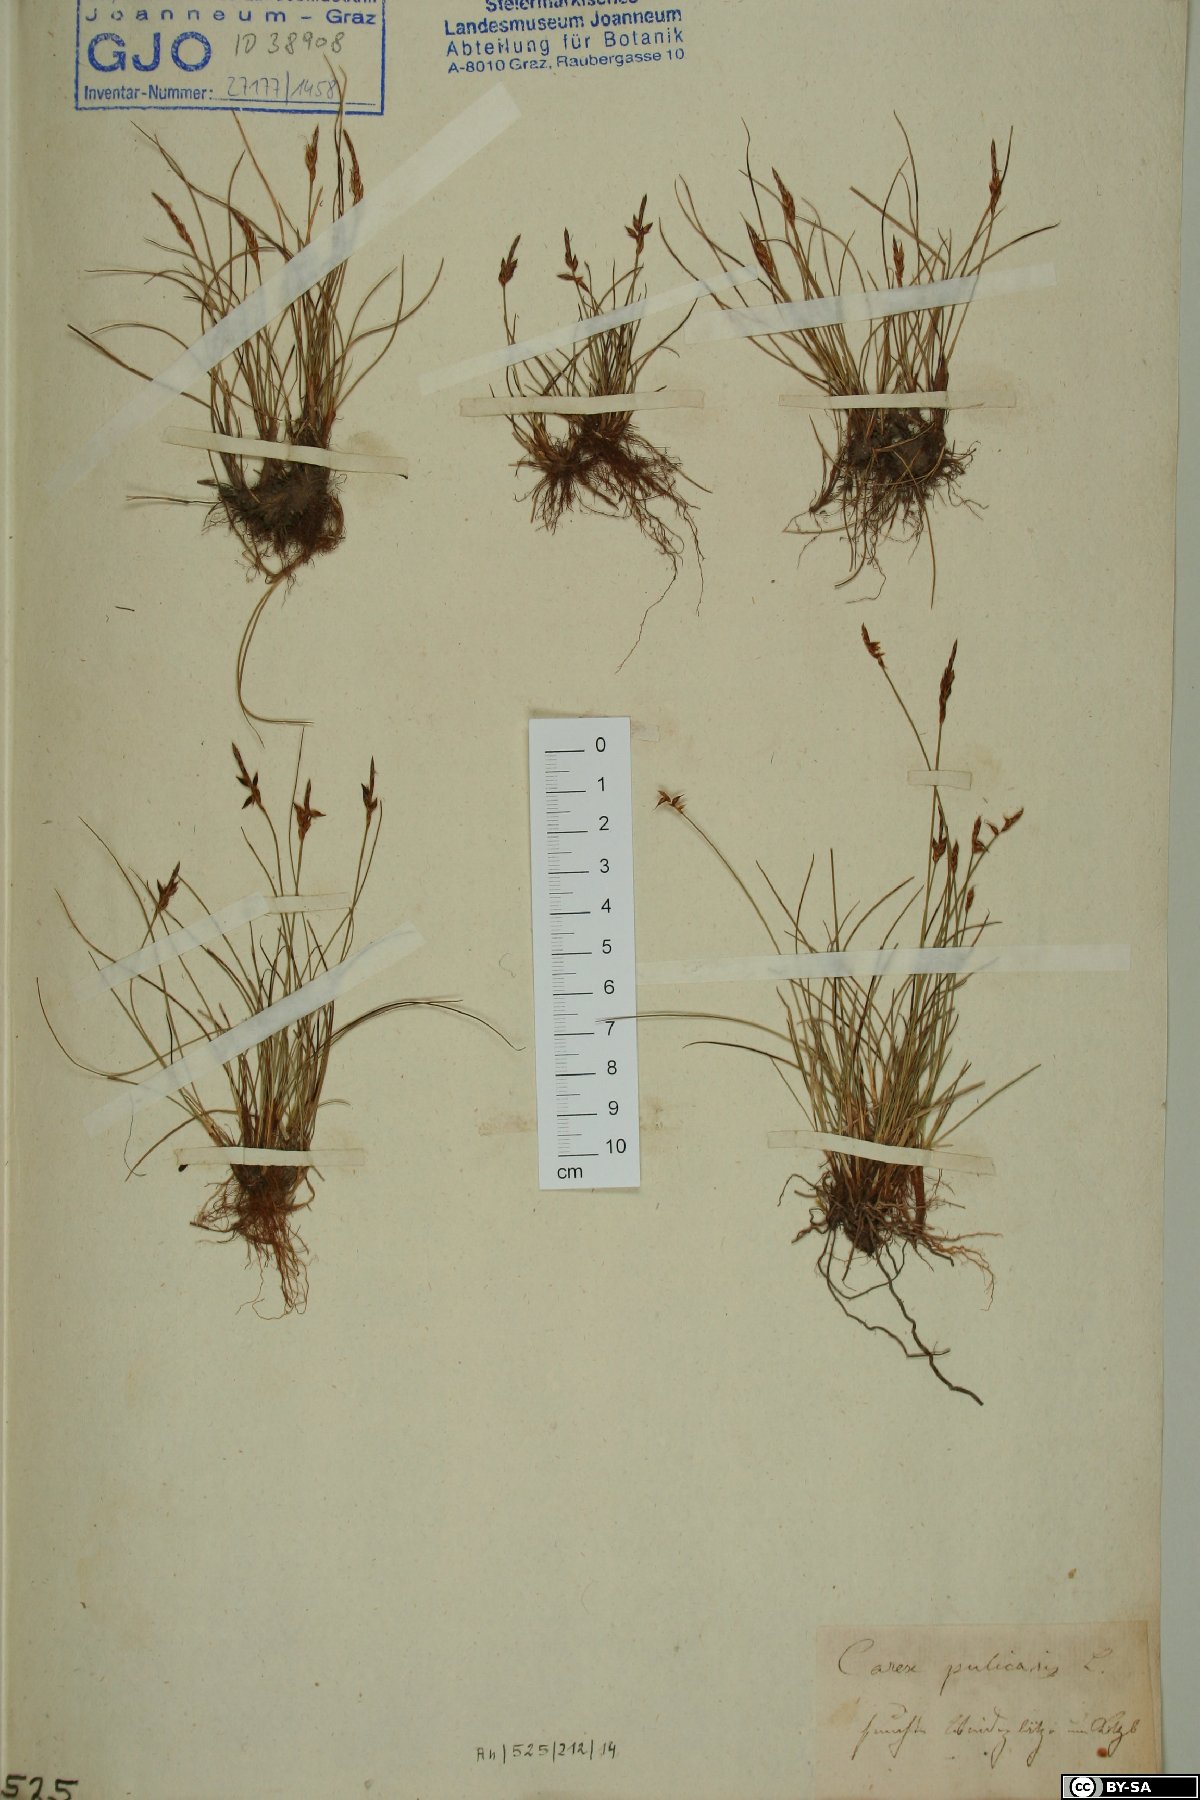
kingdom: Plantae
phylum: Tracheophyta
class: Liliopsida
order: Poales
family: Cyperaceae
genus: Carex
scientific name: Carex pulicaris
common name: Flea sedge
